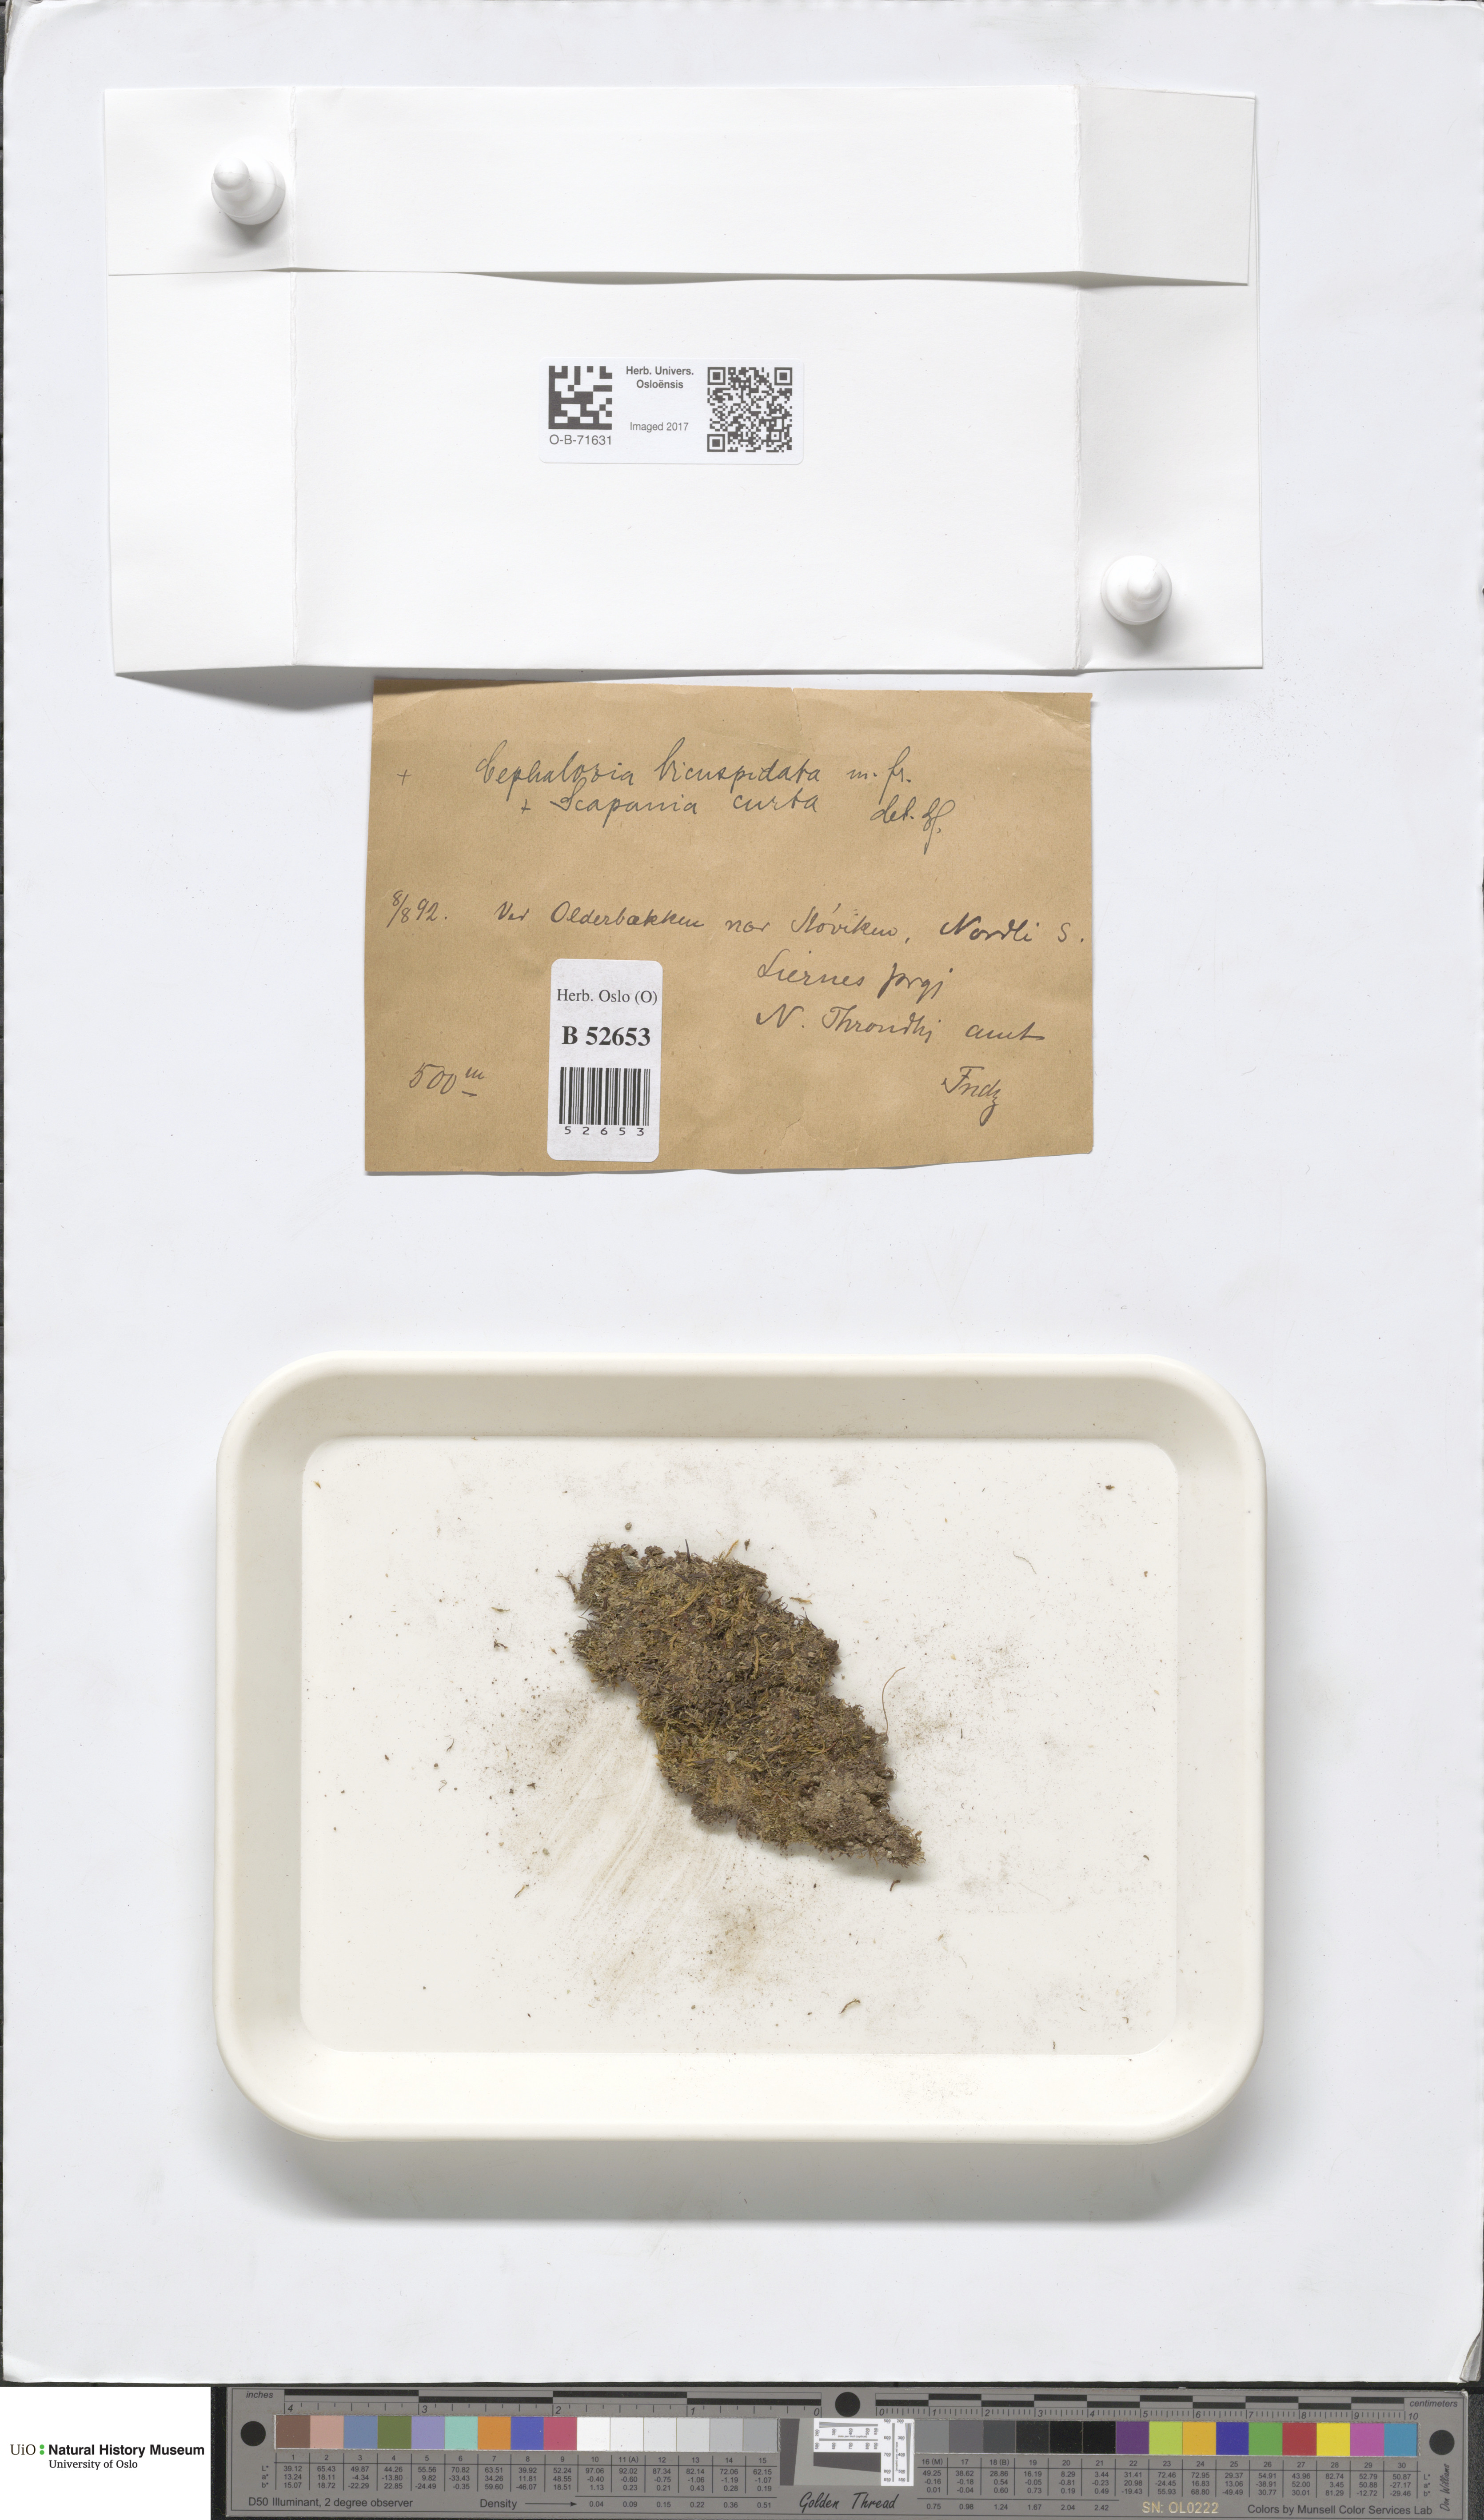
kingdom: Plantae
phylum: Marchantiophyta
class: Jungermanniopsida
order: Jungermanniales
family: Cephaloziaceae
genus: Cephalozia
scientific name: Cephalozia bicuspidata
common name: Two-horned pincerwort
